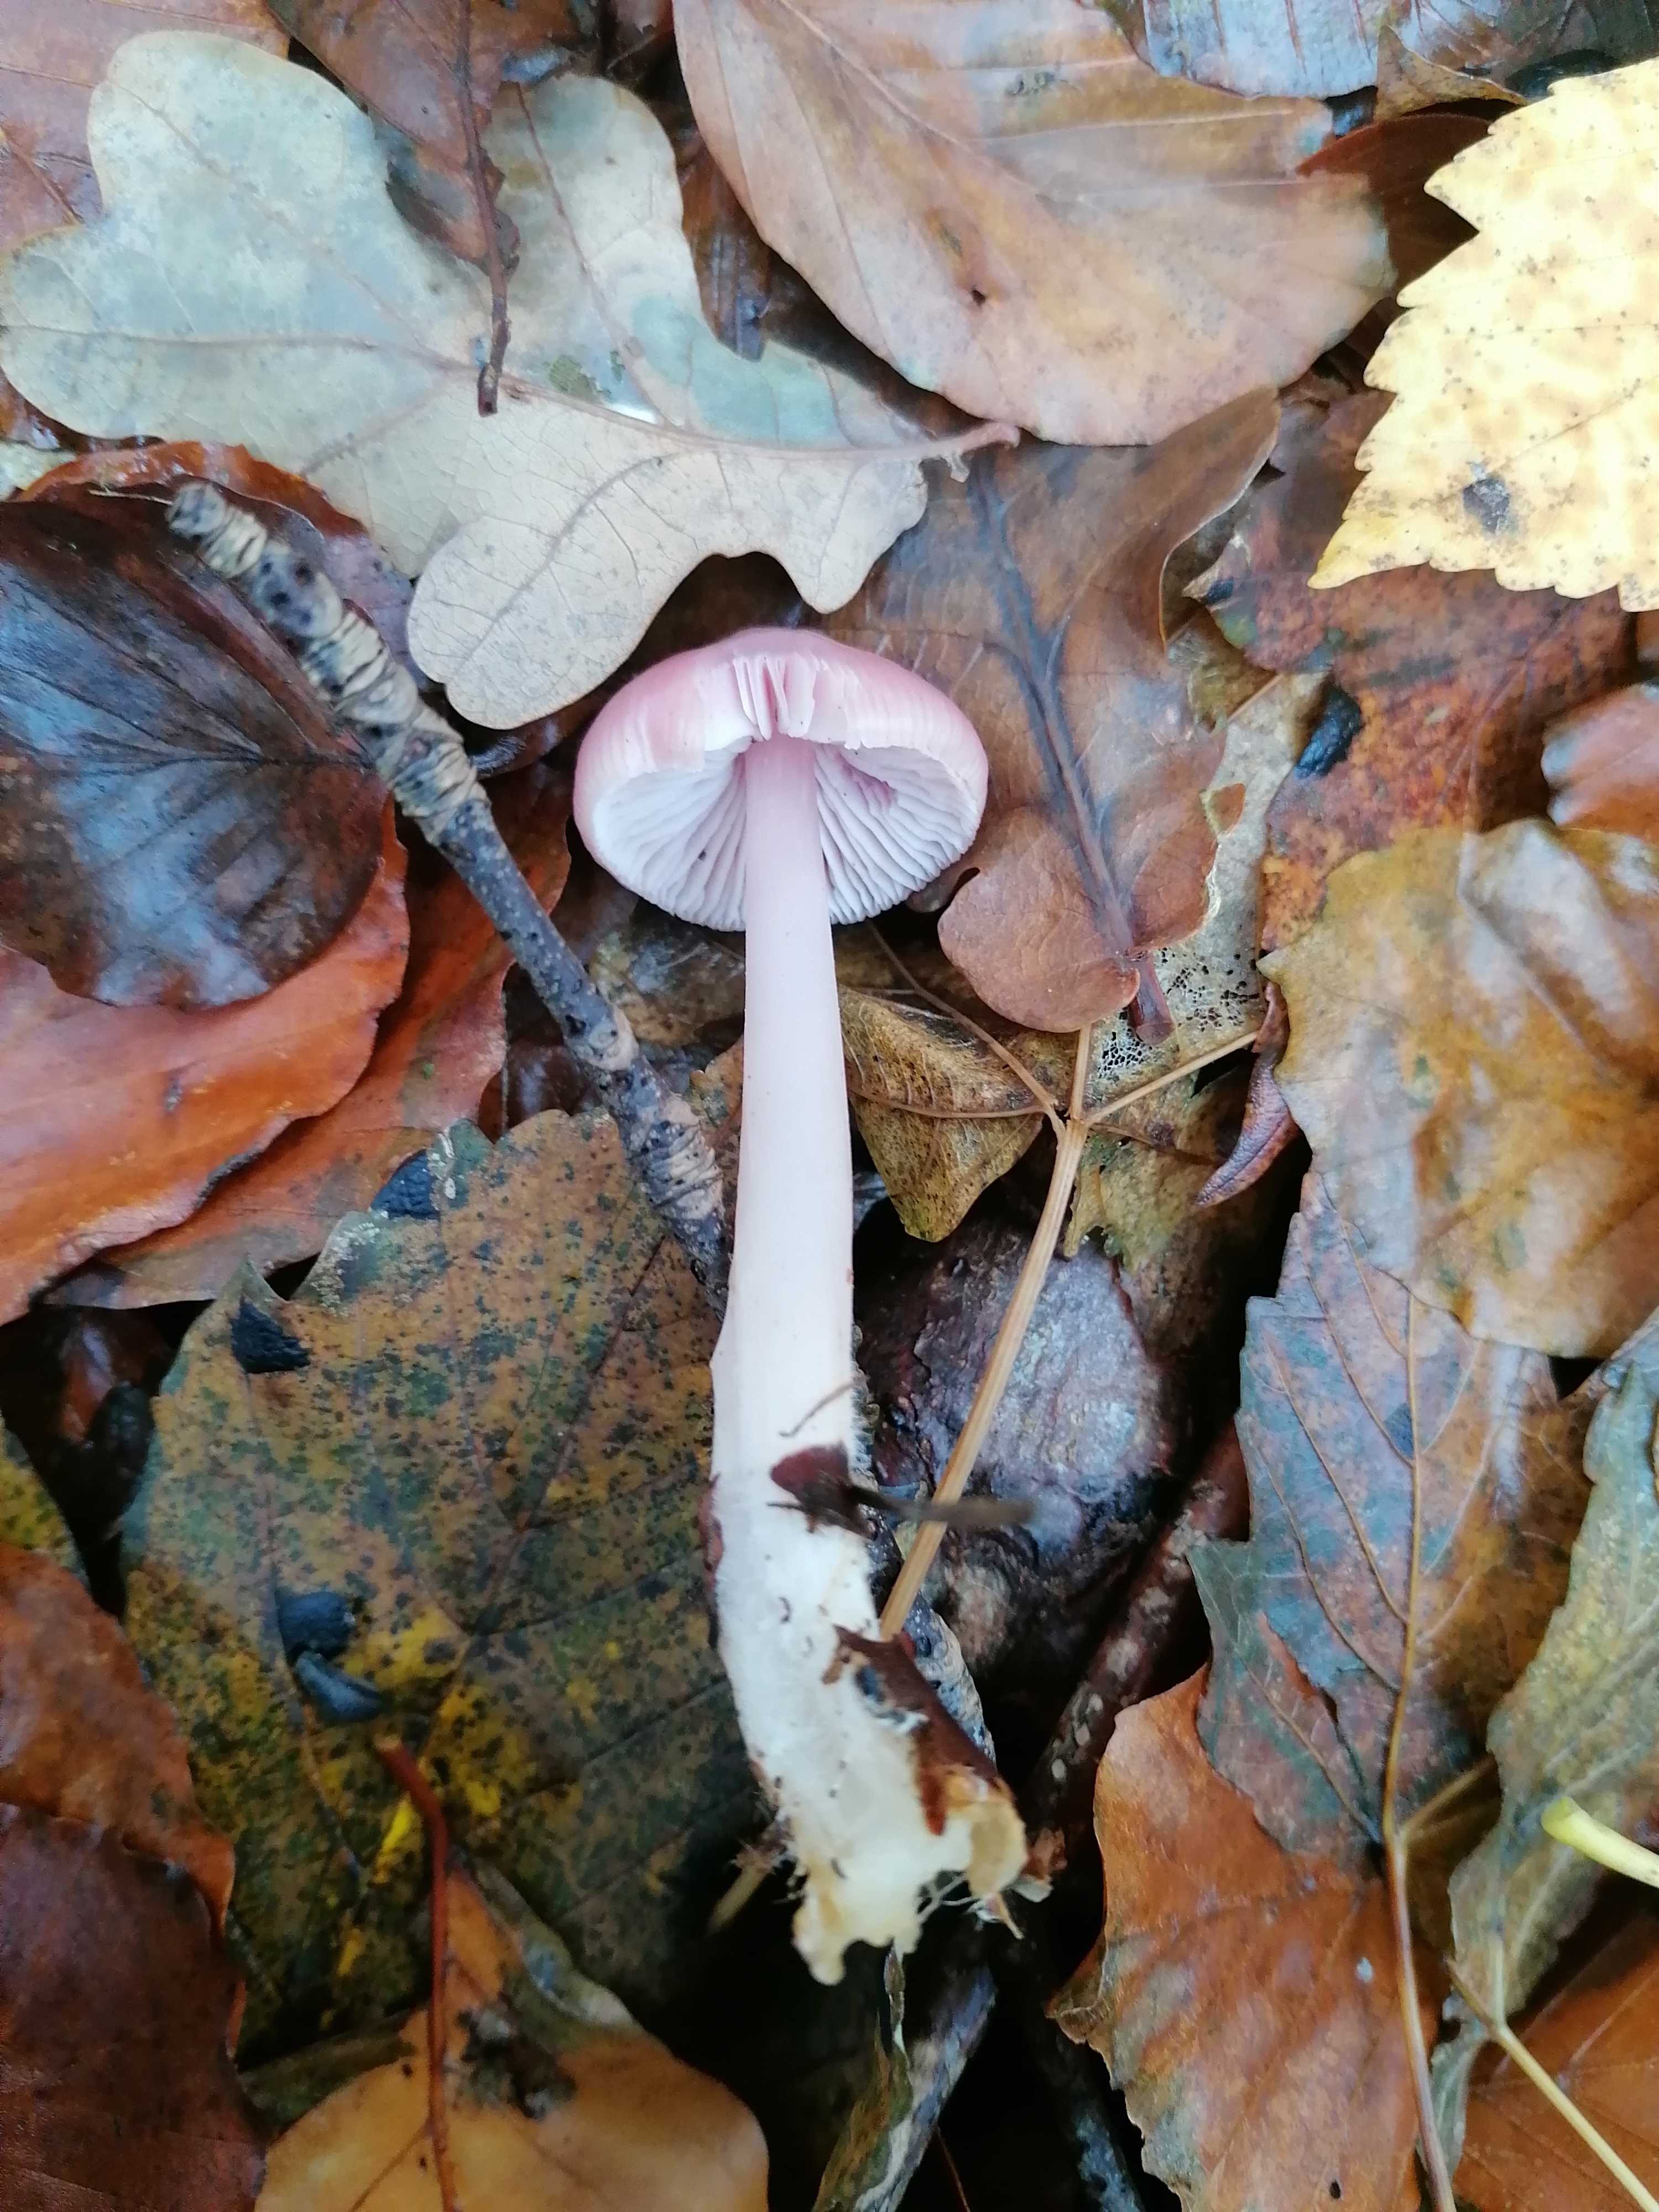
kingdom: Fungi
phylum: Basidiomycota
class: Agaricomycetes
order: Agaricales
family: Mycenaceae
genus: Mycena
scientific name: Mycena rosea
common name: rosa huesvamp
